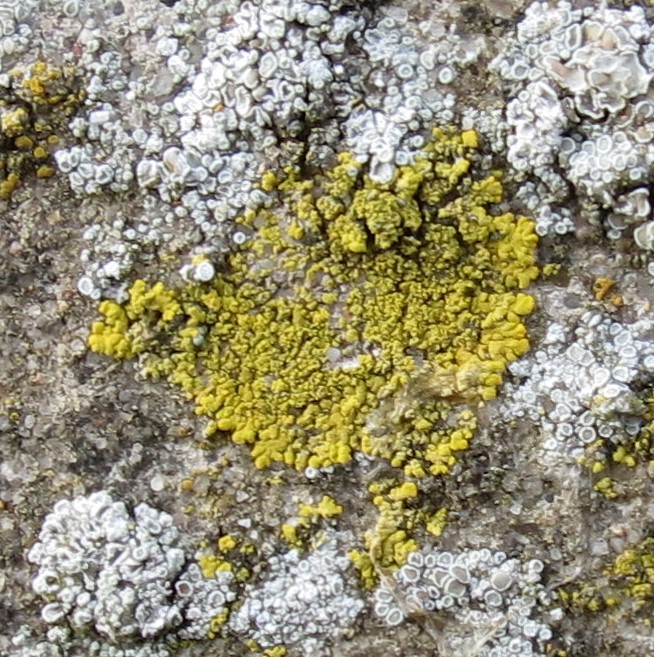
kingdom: Fungi
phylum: Ascomycota
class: Candelariomycetes
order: Candelariales
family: Candelariaceae
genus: Candelariella
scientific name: Candelariella medians
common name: roset-æggeblommelav
